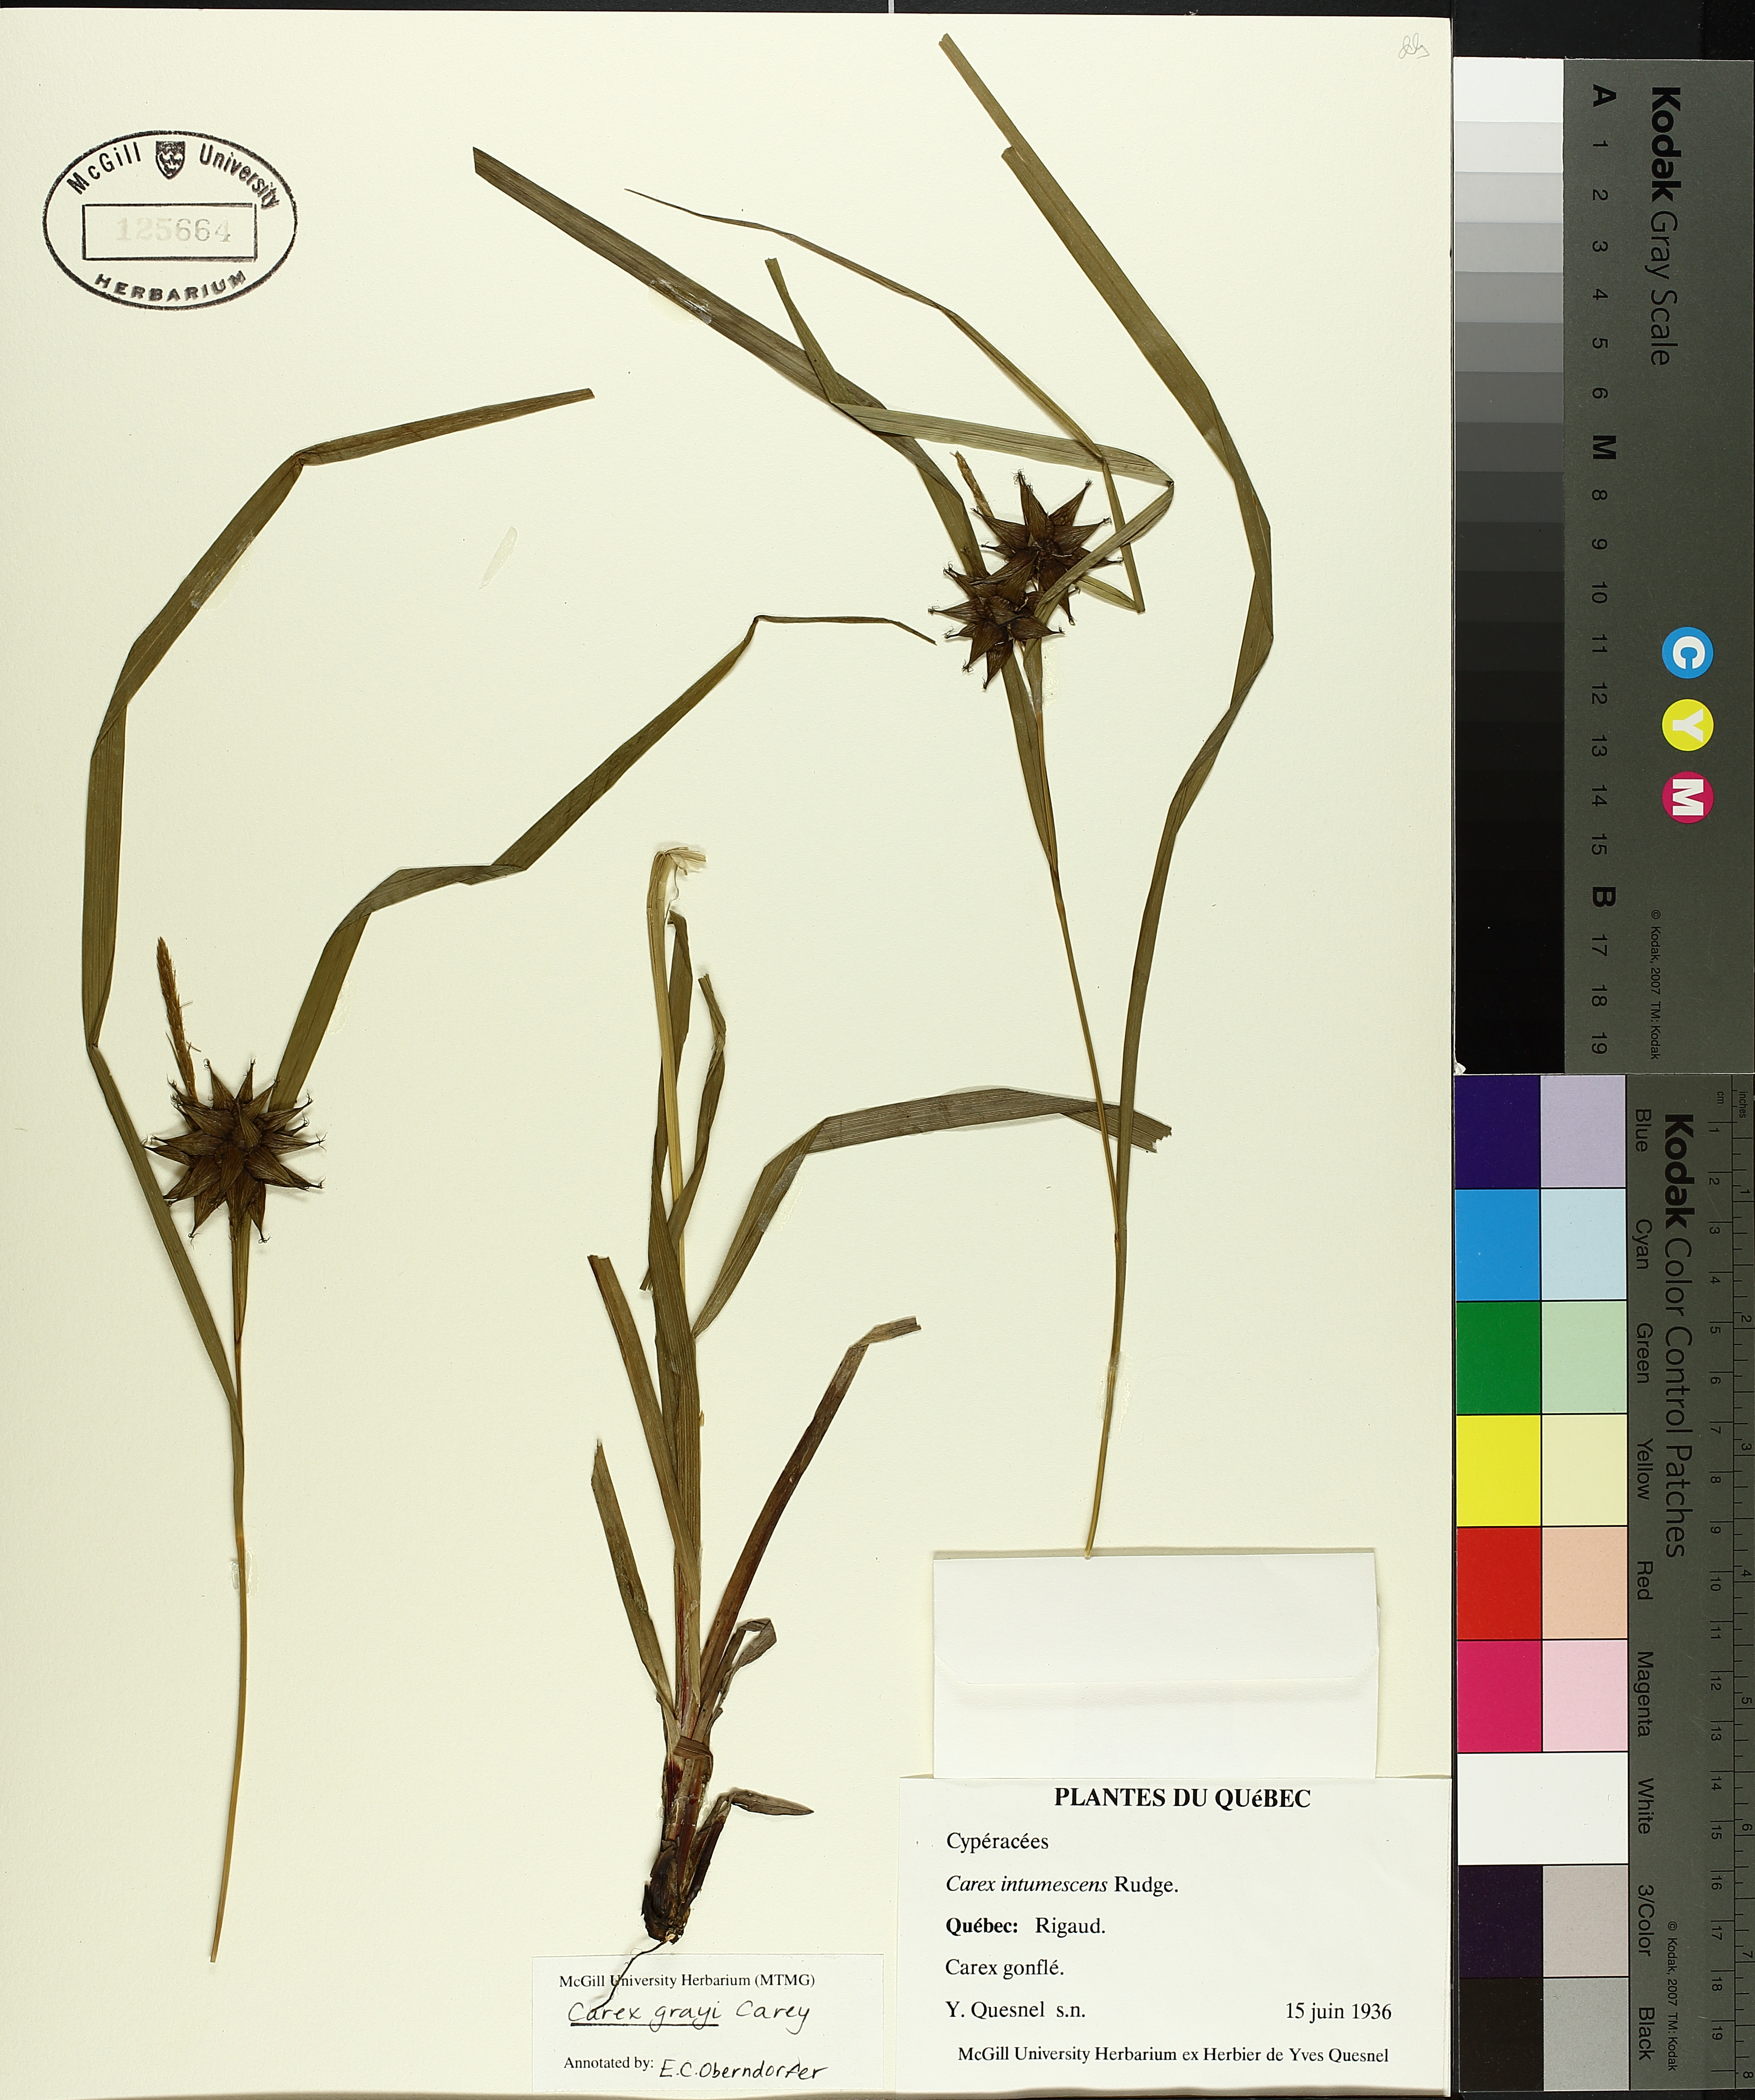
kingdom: Plantae
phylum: Tracheophyta
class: Liliopsida
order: Poales
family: Cyperaceae
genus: Carex
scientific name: Carex grayi
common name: Asa gray's sedge
